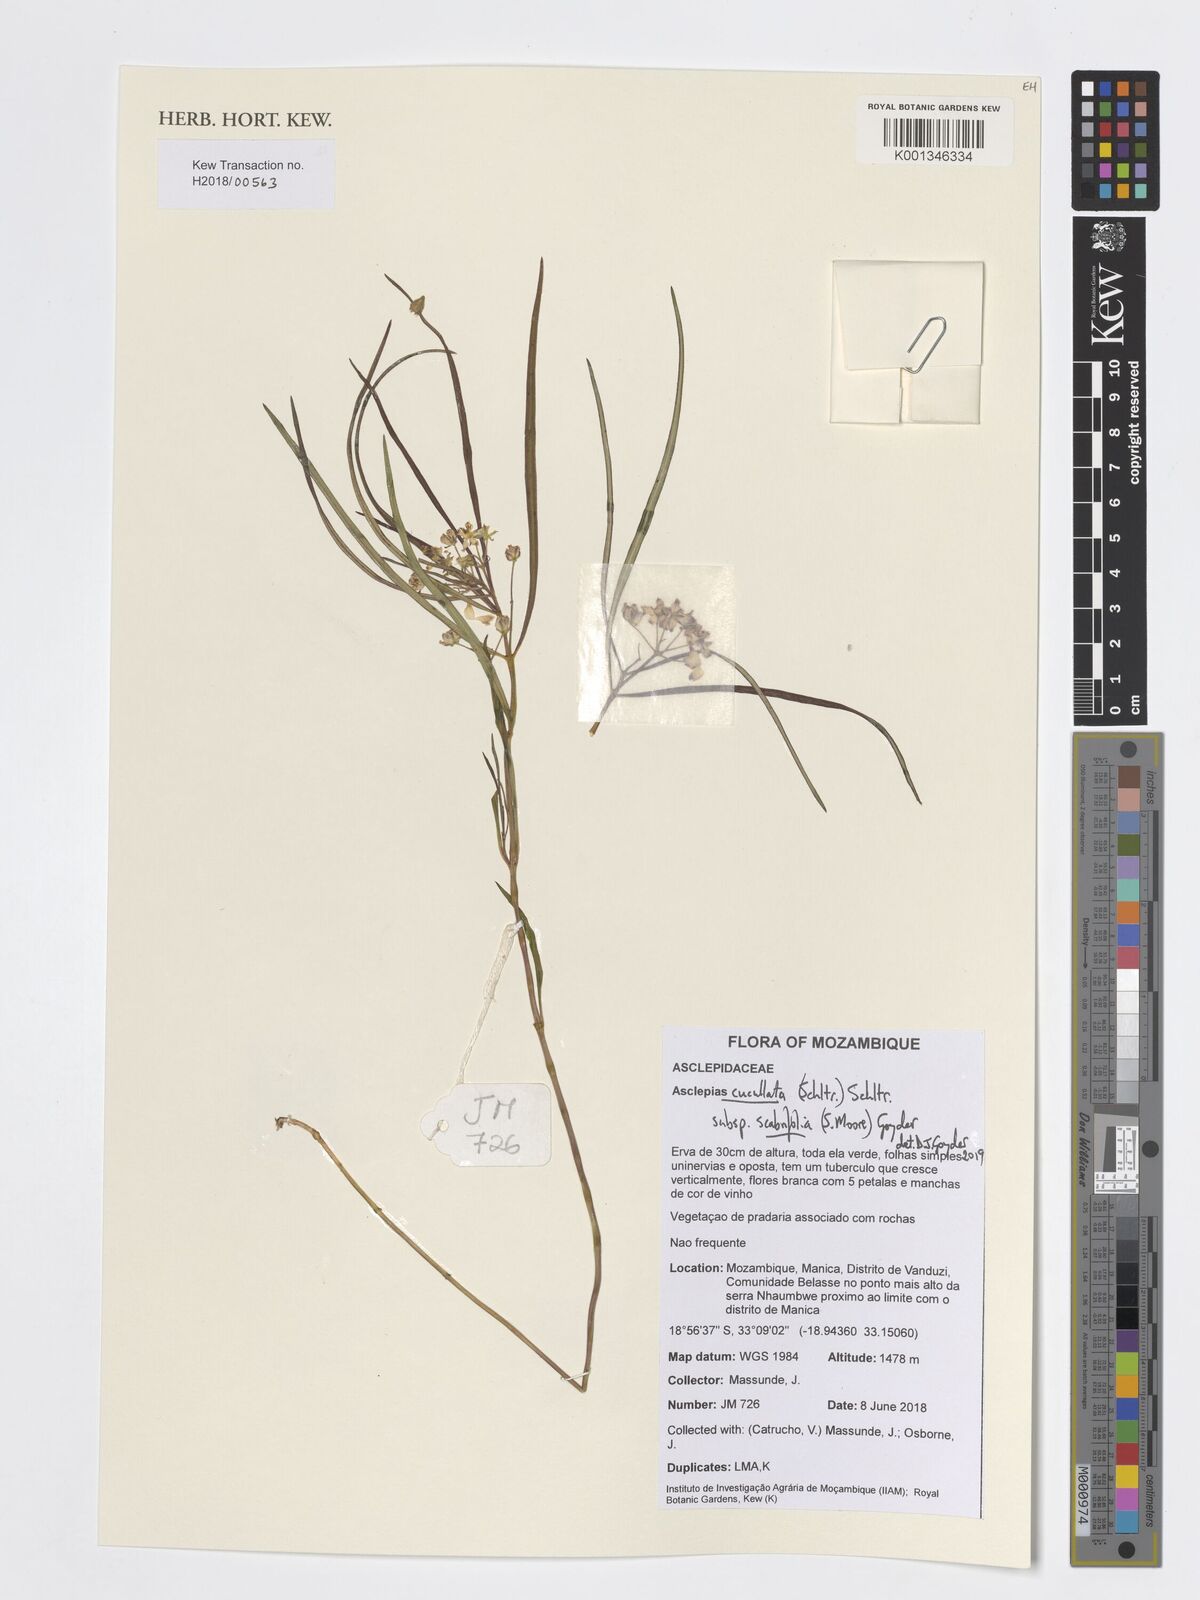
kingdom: Plantae
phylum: Tracheophyta
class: Magnoliopsida
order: Gentianales
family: Apocynaceae
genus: Asclepias
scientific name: Asclepias cucullata
